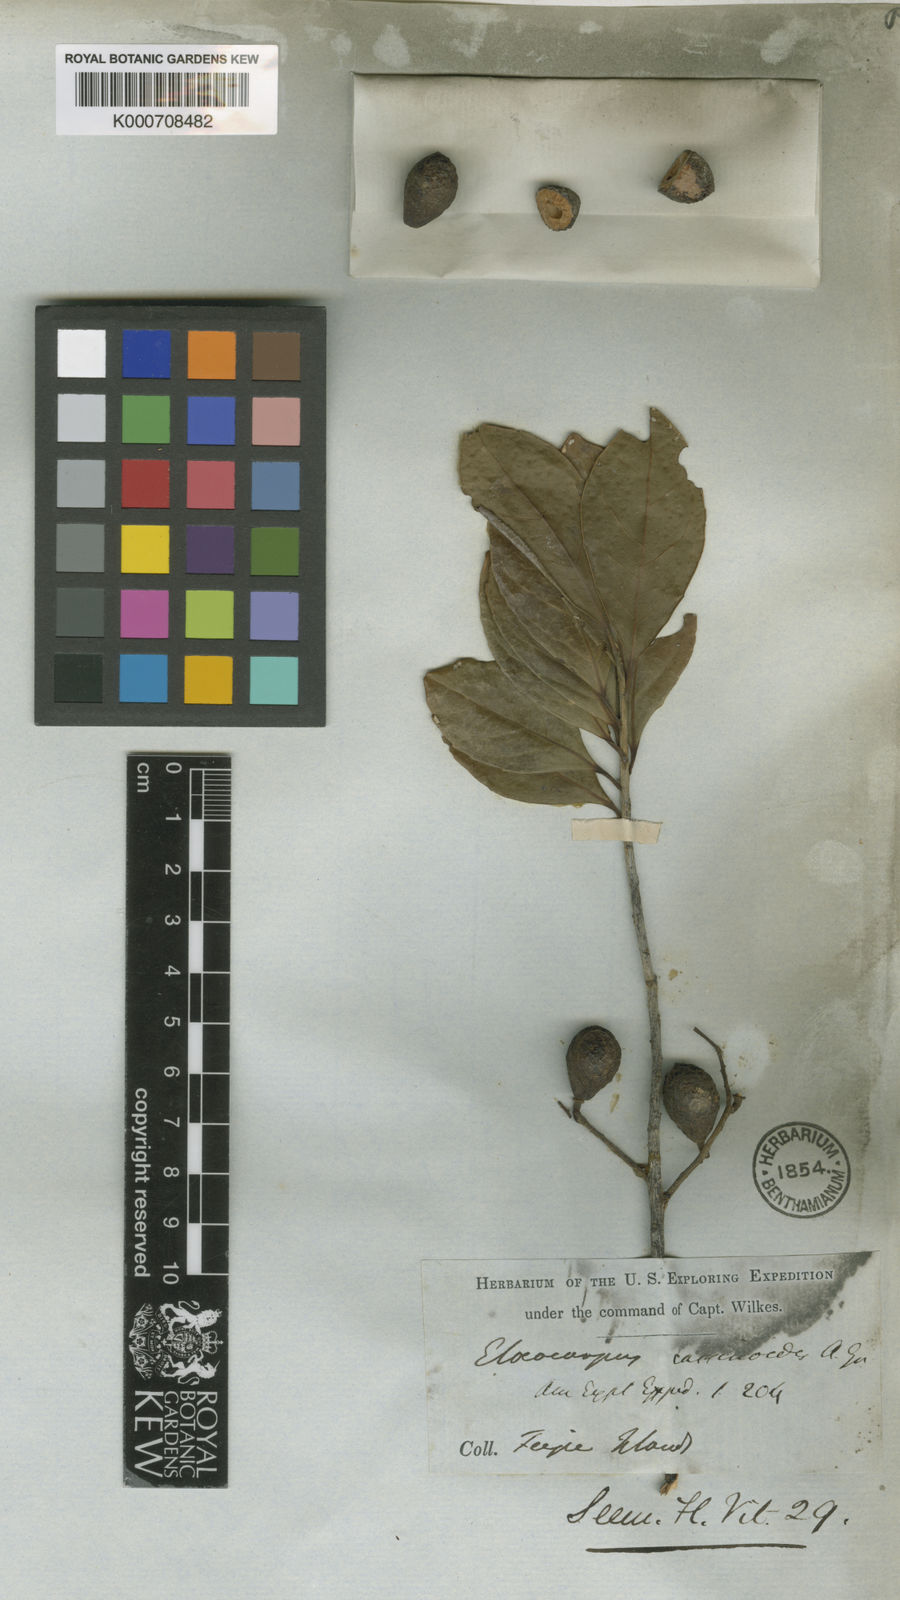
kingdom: Plantae
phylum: Tracheophyta
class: Magnoliopsida
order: Oxalidales
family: Elaeocarpaceae
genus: Elaeocarpus
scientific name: Elaeocarpus cassinoides
